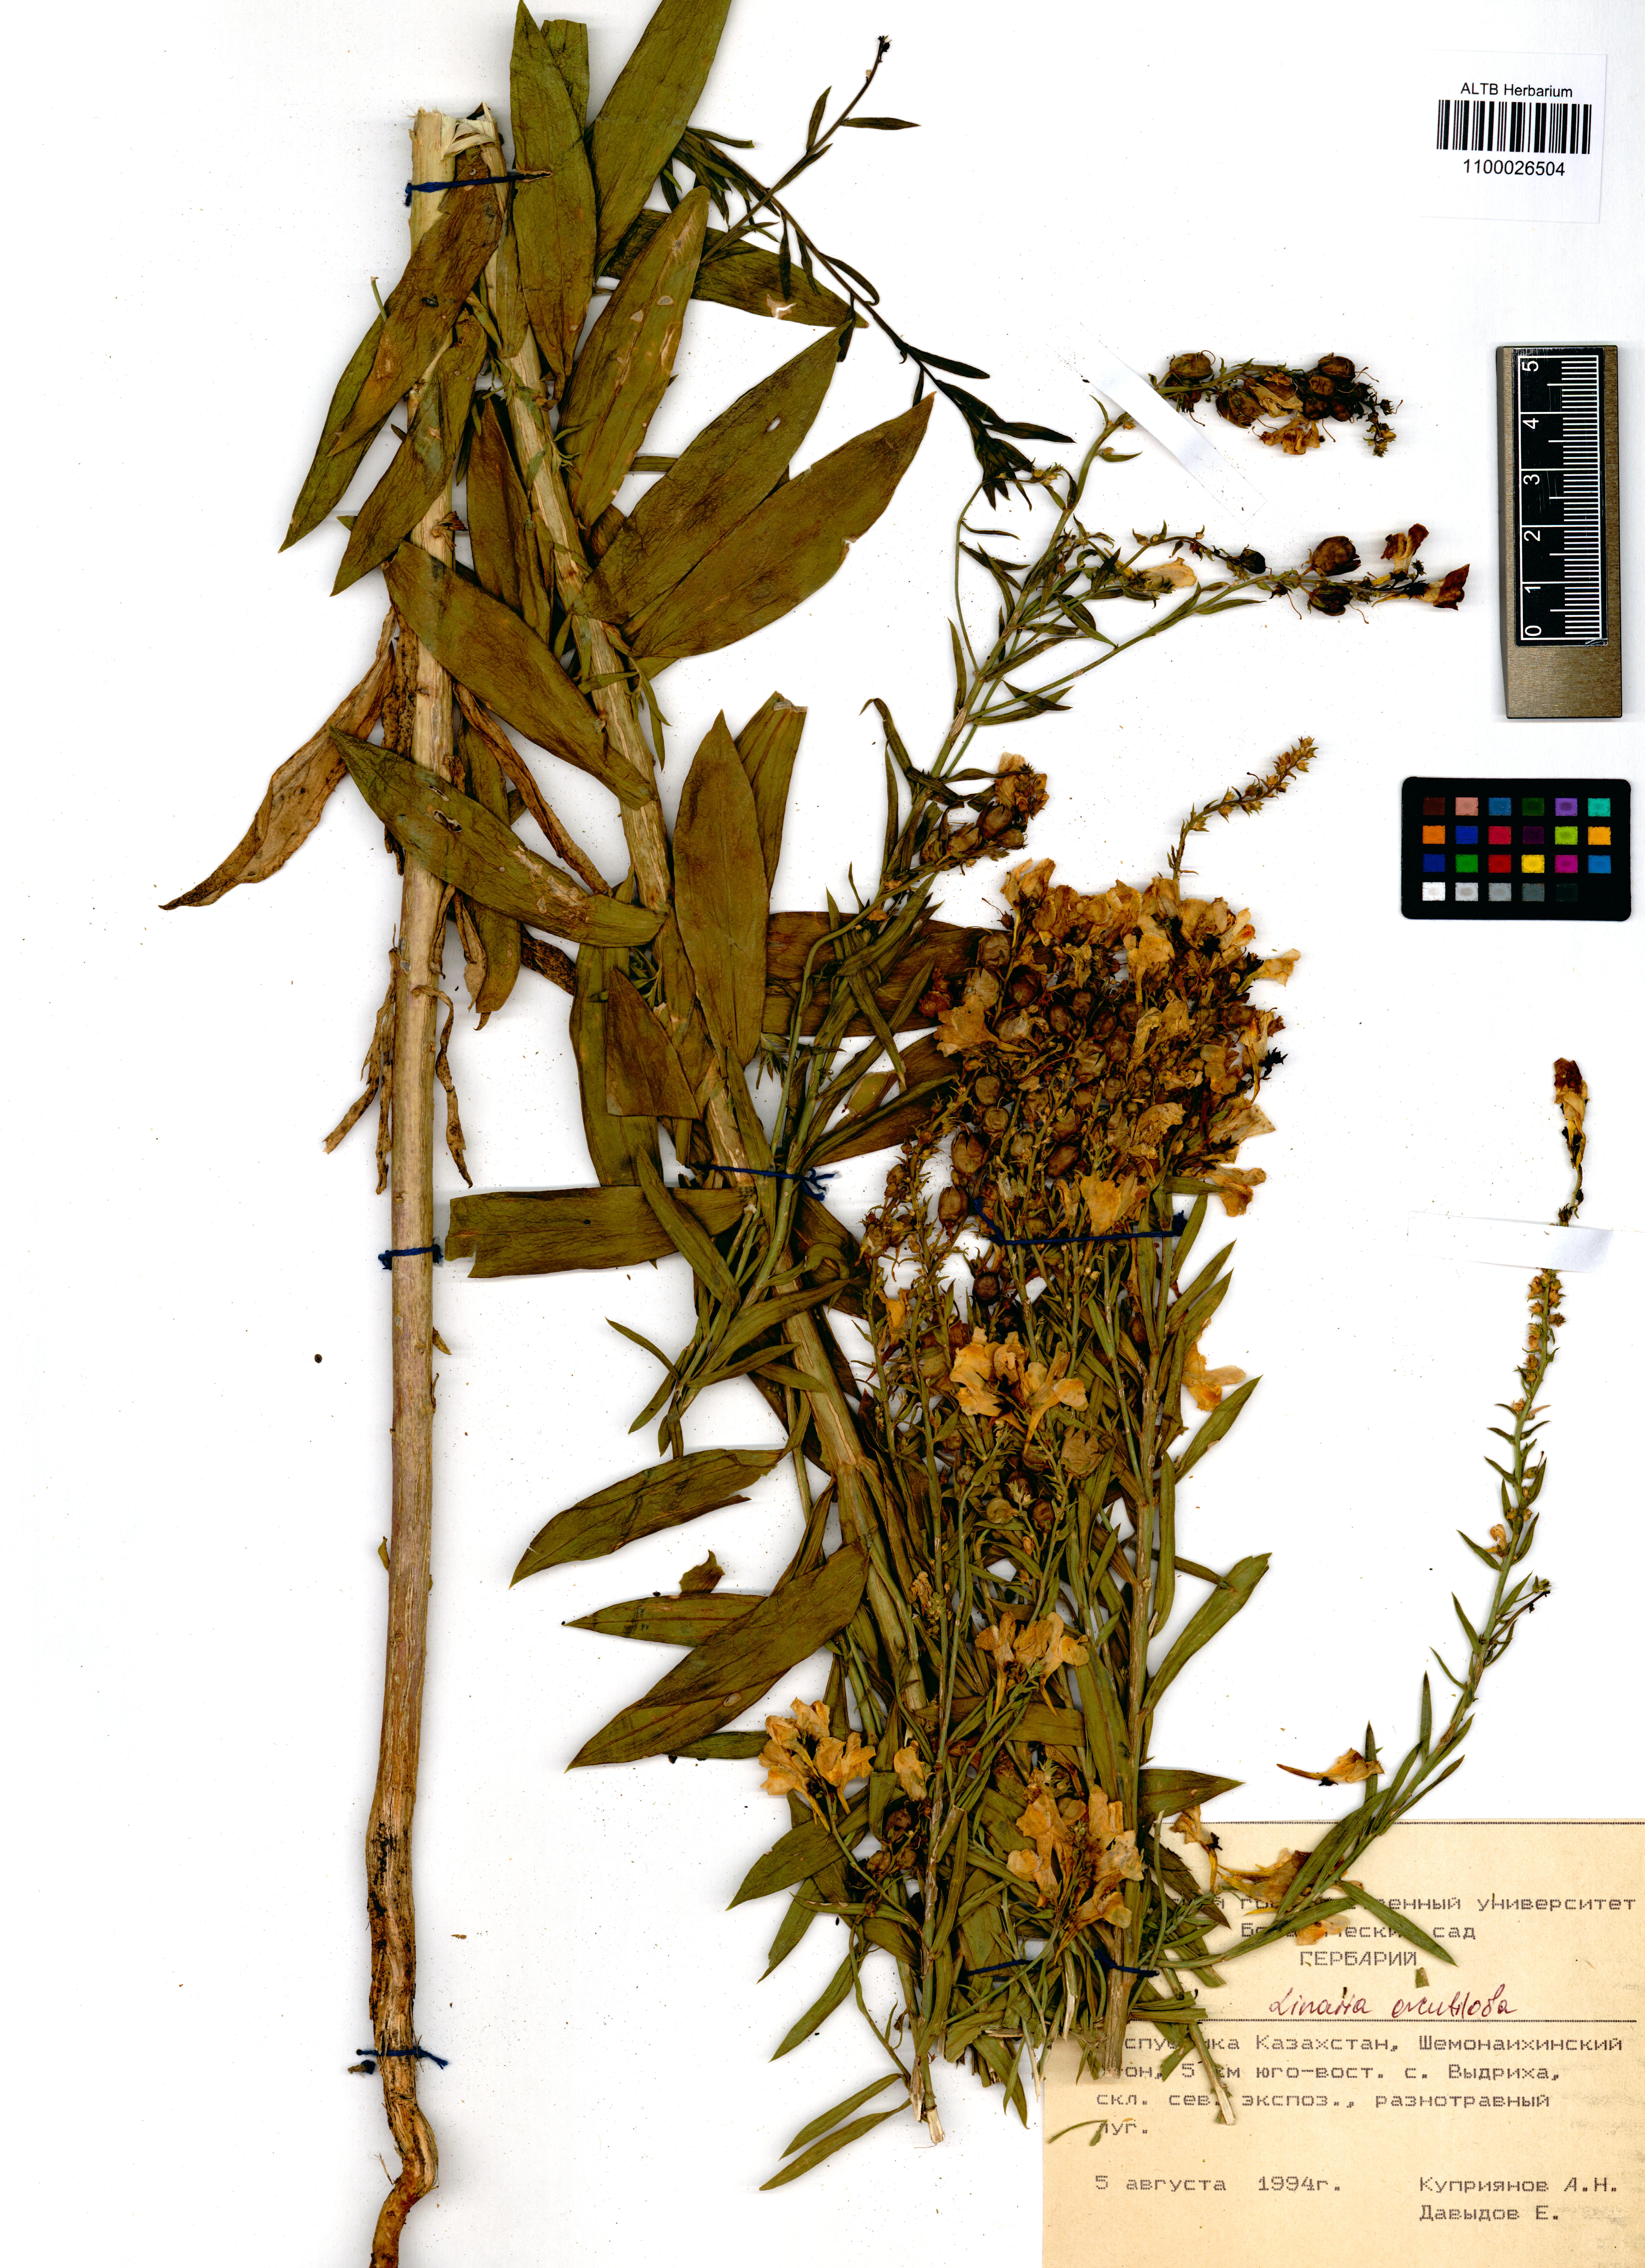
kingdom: Plantae
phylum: Tracheophyta
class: Magnoliopsida
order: Lamiales
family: Plantaginaceae
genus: Linaria
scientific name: Linaria acutiloba
